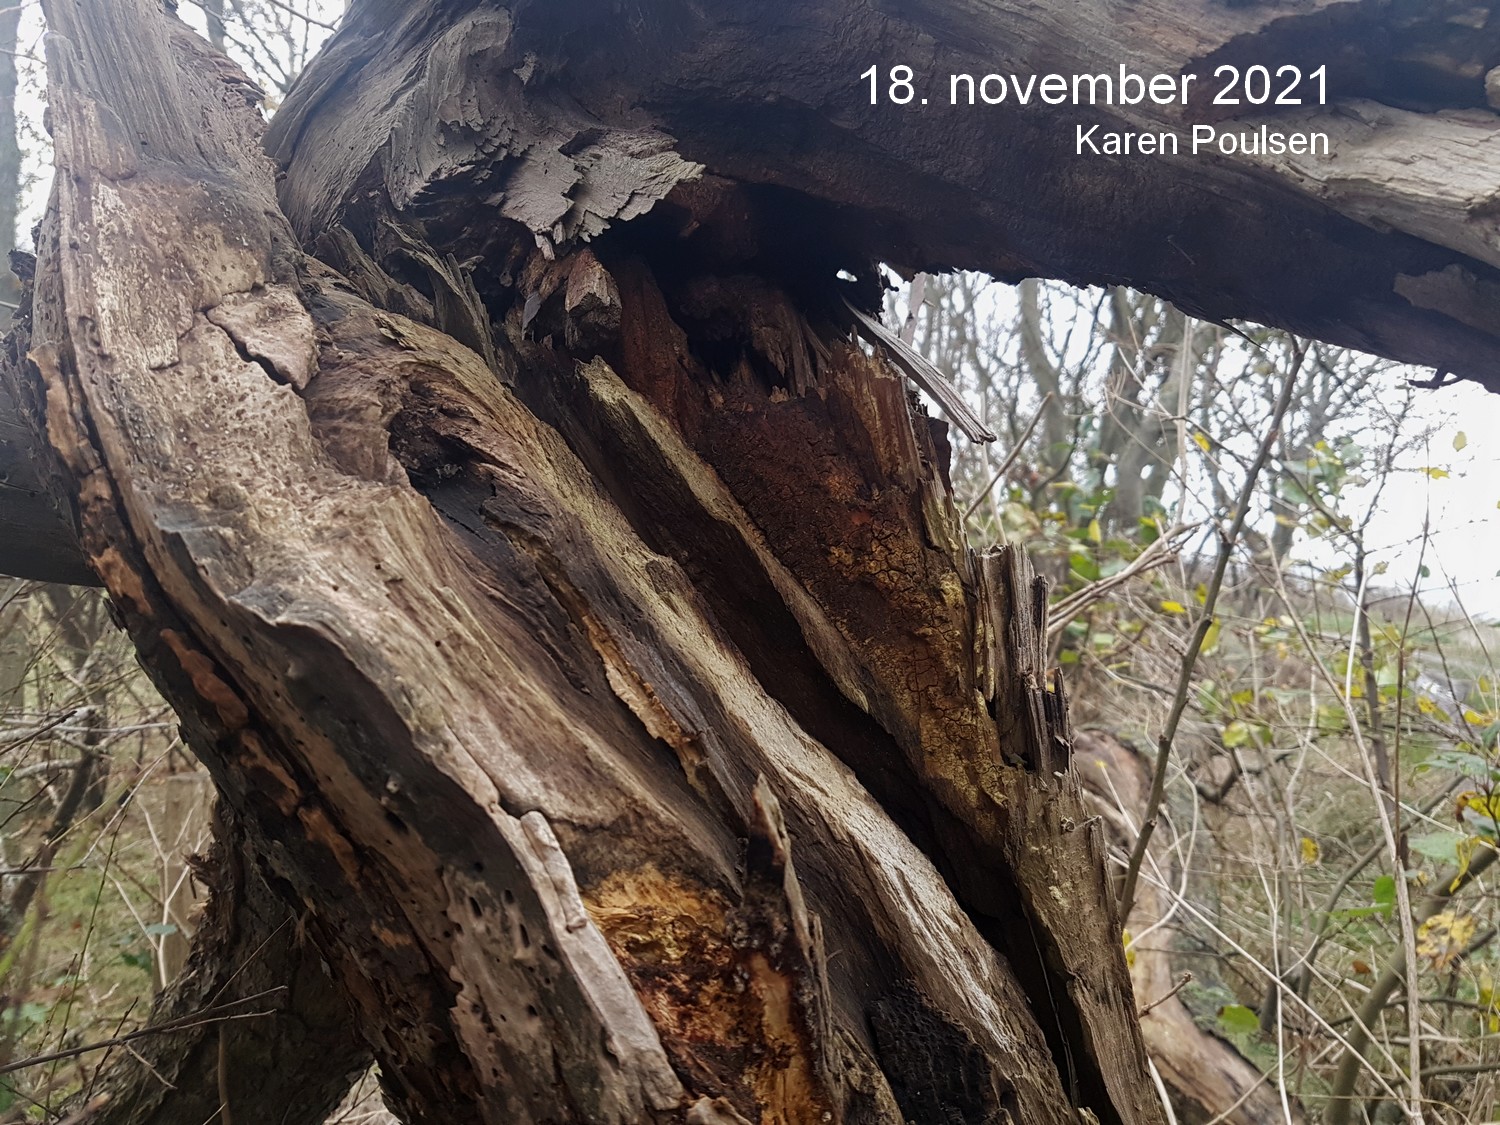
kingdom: Fungi
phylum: Basidiomycota
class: Agaricomycetes
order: Polyporales
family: Meruliaceae
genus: Sarcodontia
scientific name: Sarcodontia setosa
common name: æblepig
